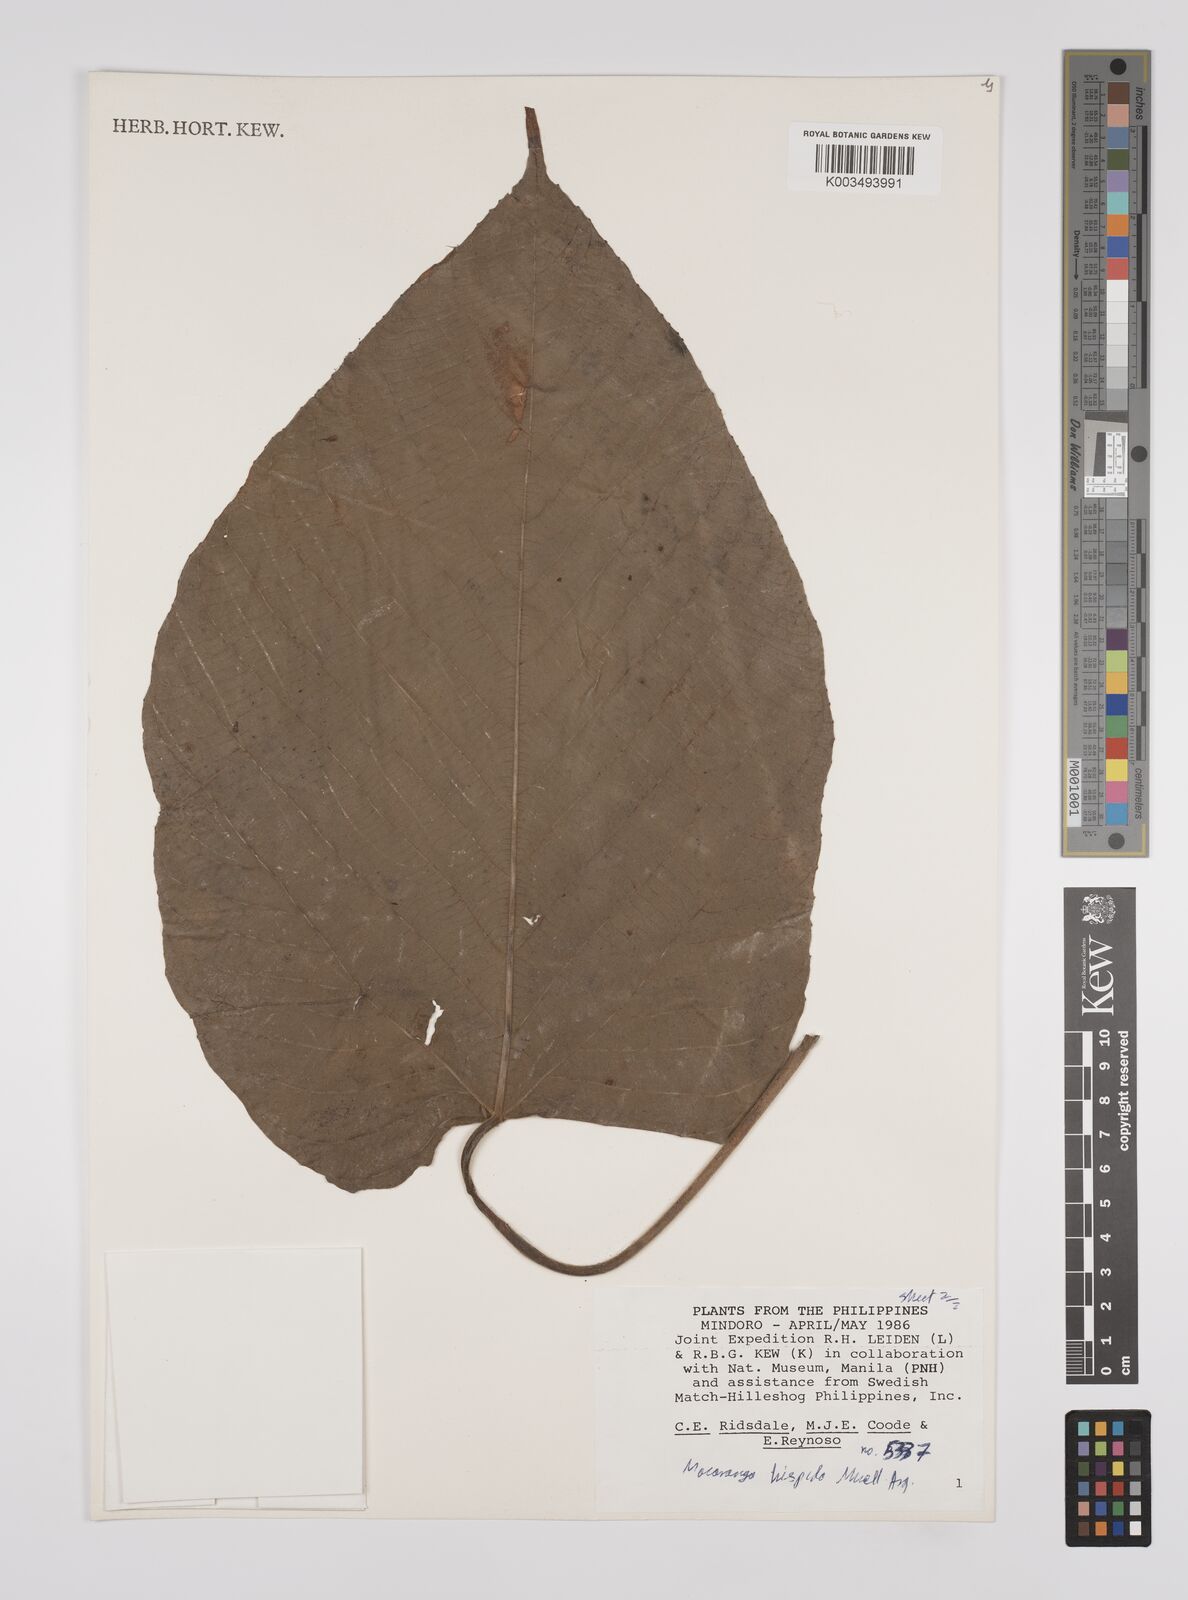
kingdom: Plantae
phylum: Tracheophyta
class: Magnoliopsida
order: Malpighiales
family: Euphorbiaceae
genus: Macaranga
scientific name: Macaranga hispida
